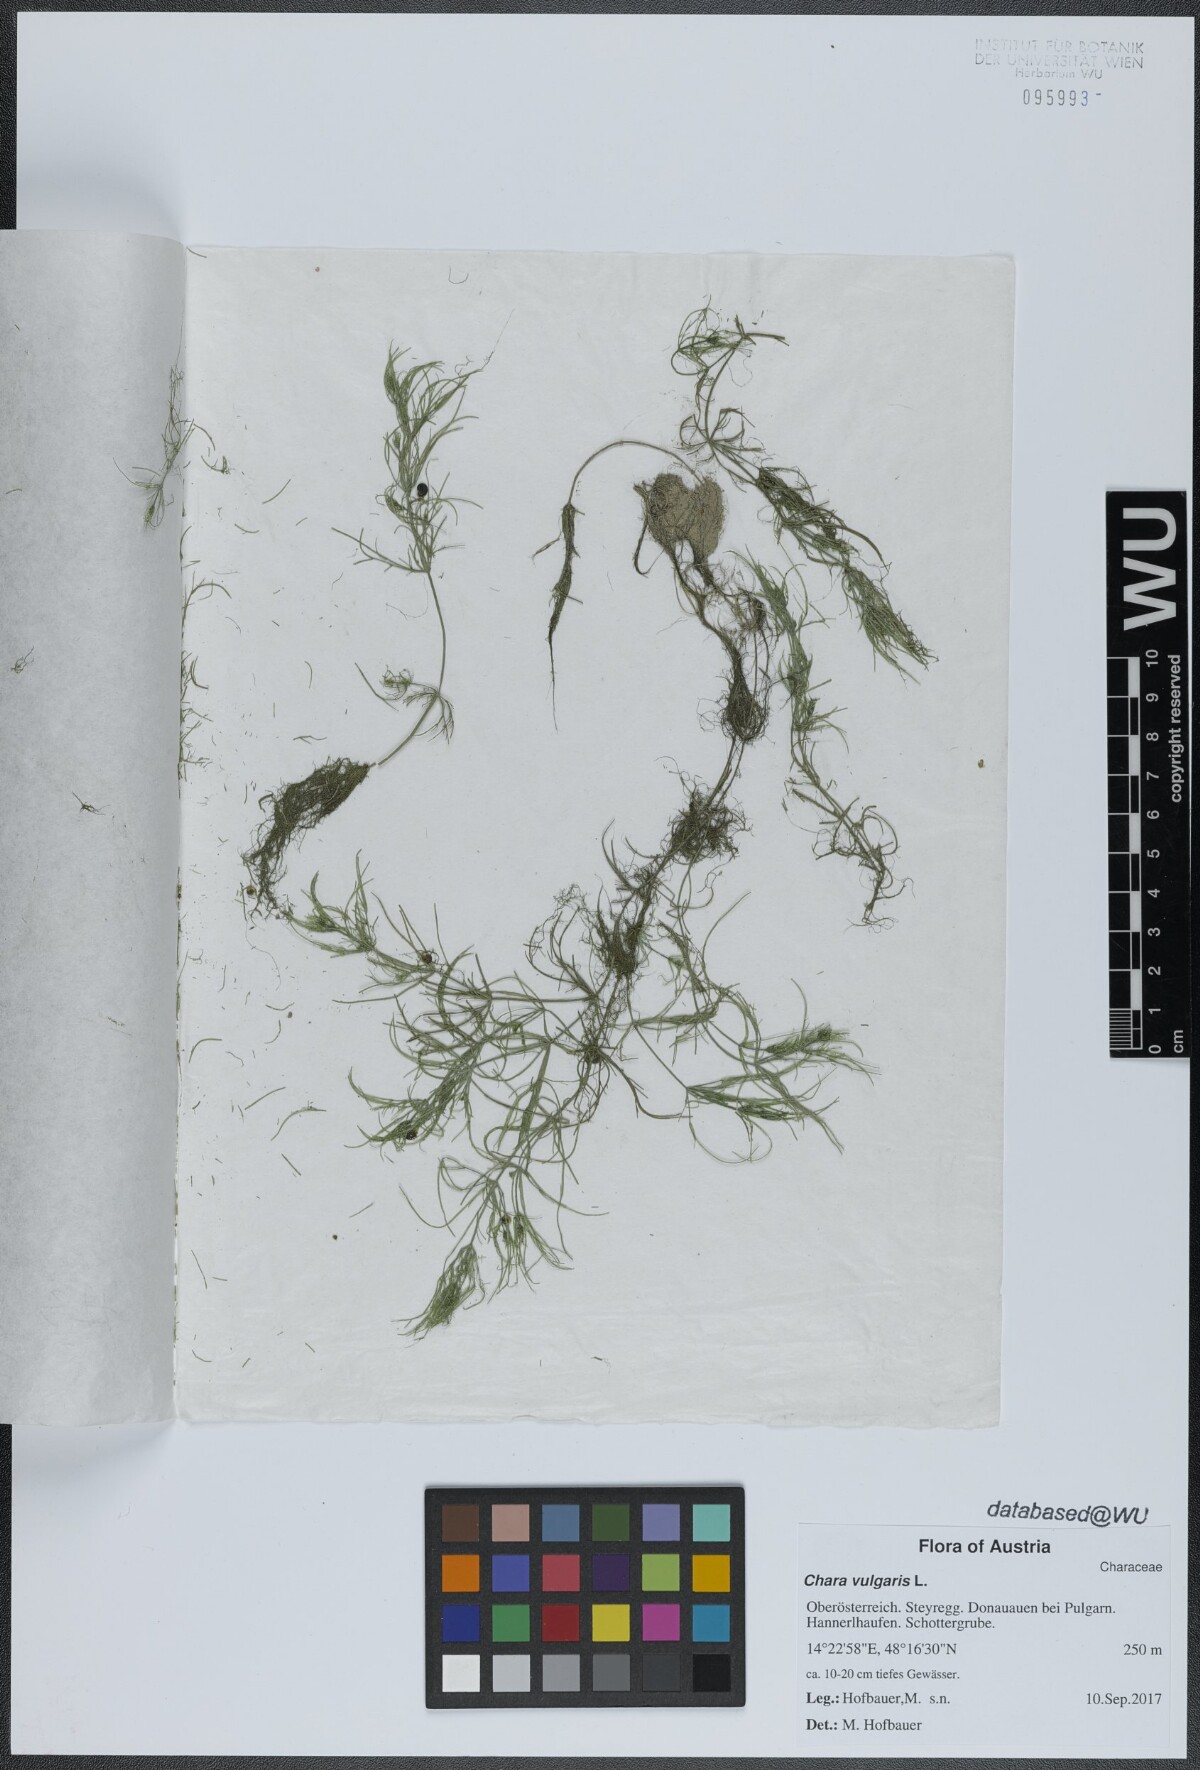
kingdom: Plantae
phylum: Charophyta
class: Charophyceae
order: Charales
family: Characeae
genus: Chara
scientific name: Chara vulgaris
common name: Common stonewort
